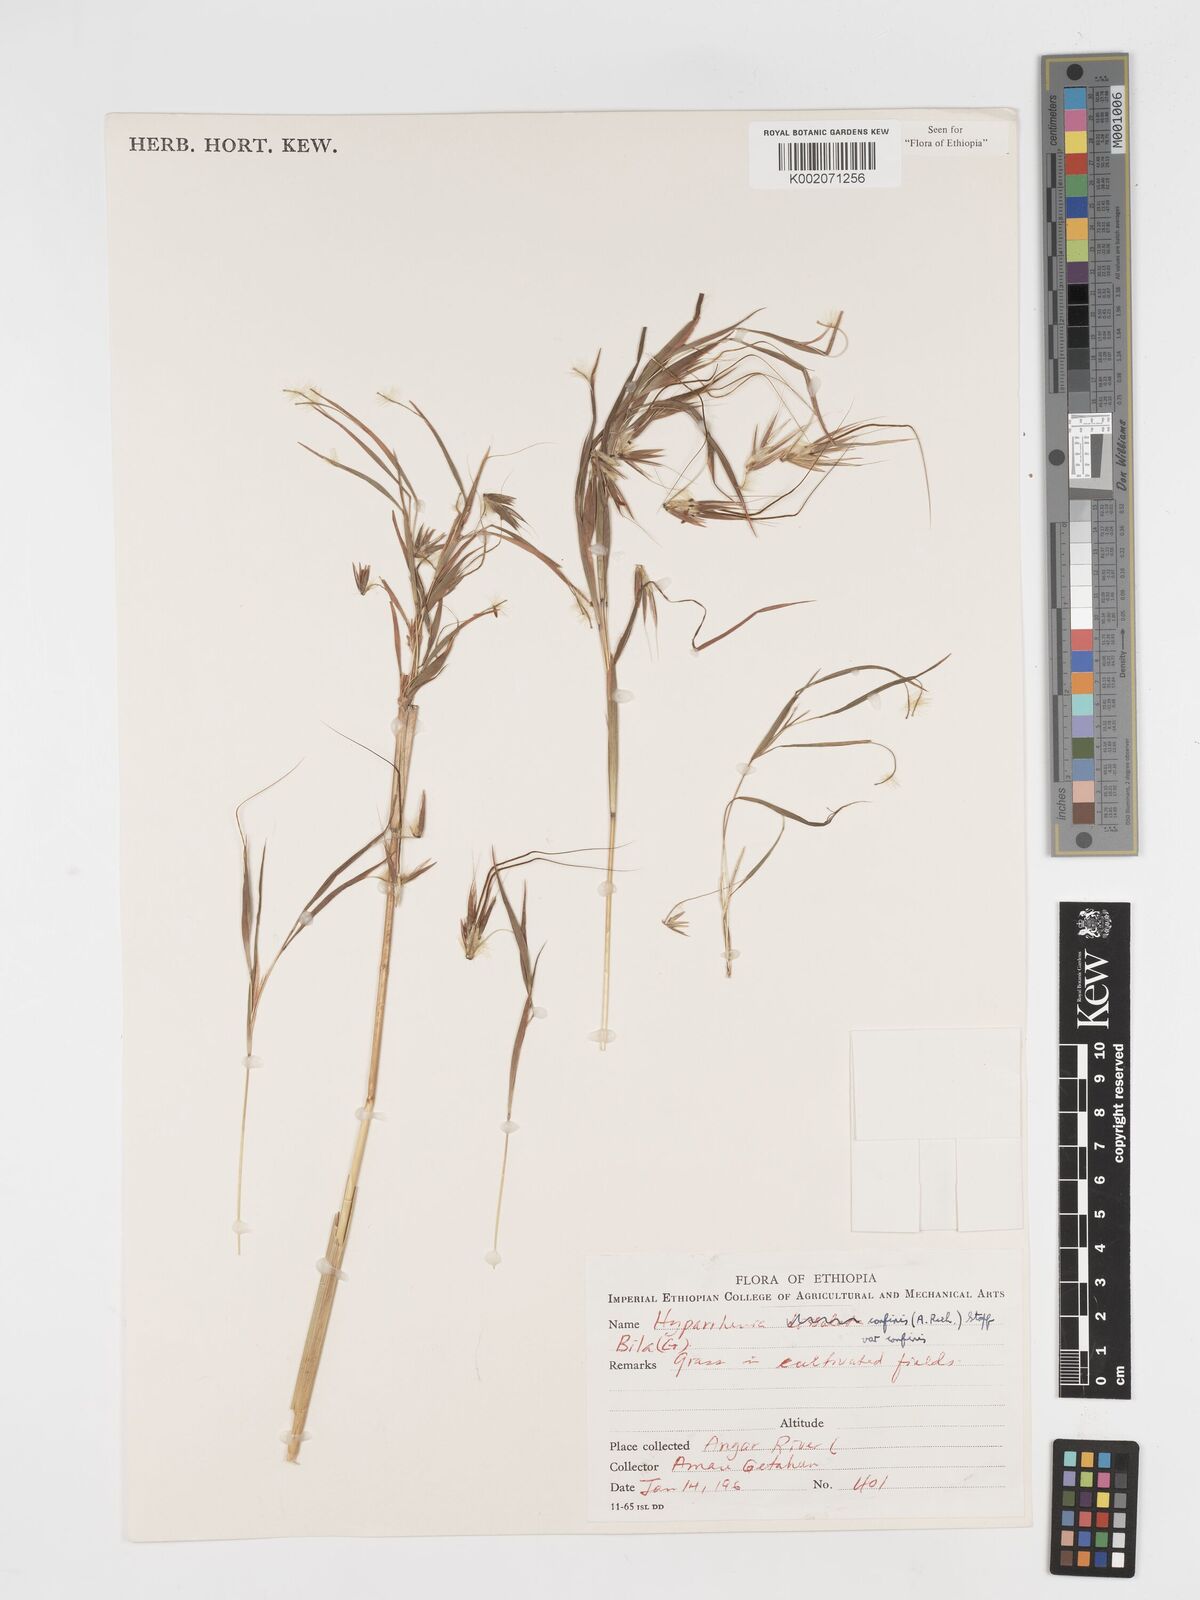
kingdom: Plantae
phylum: Tracheophyta
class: Liliopsida
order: Poales
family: Poaceae
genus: Hyparrhenia
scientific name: Hyparrhenia confinis
